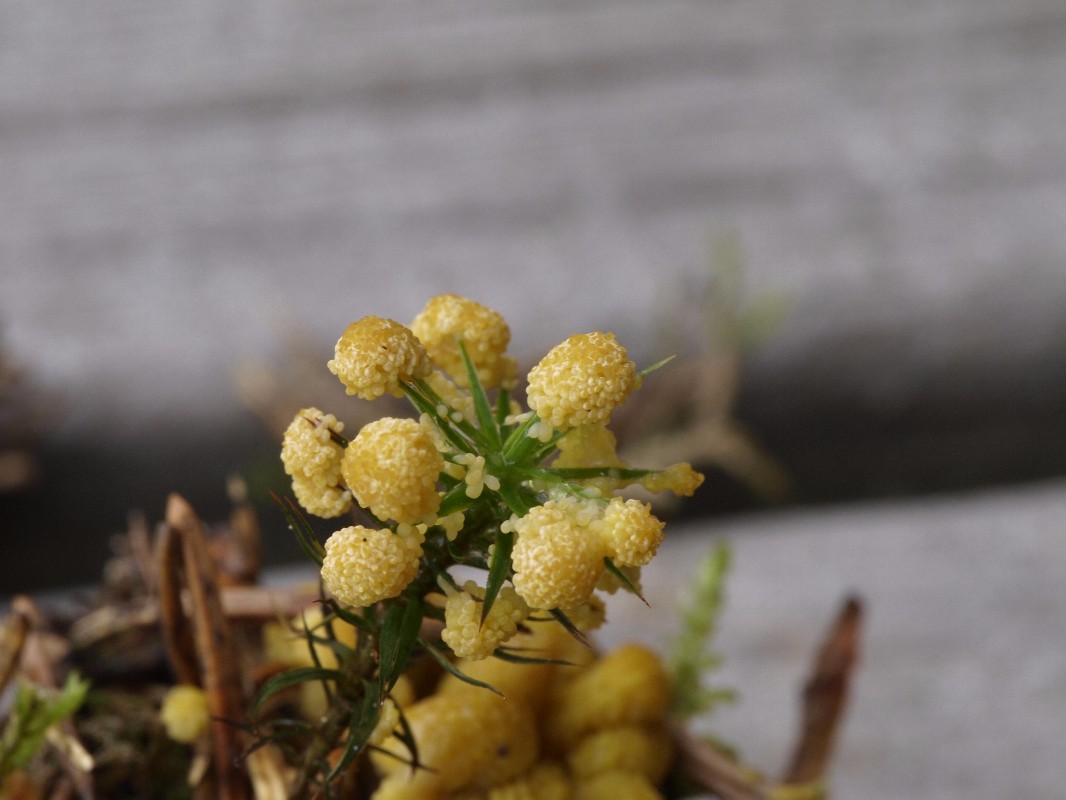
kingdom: Protozoa
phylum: Mycetozoa
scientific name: Mycetozoa
